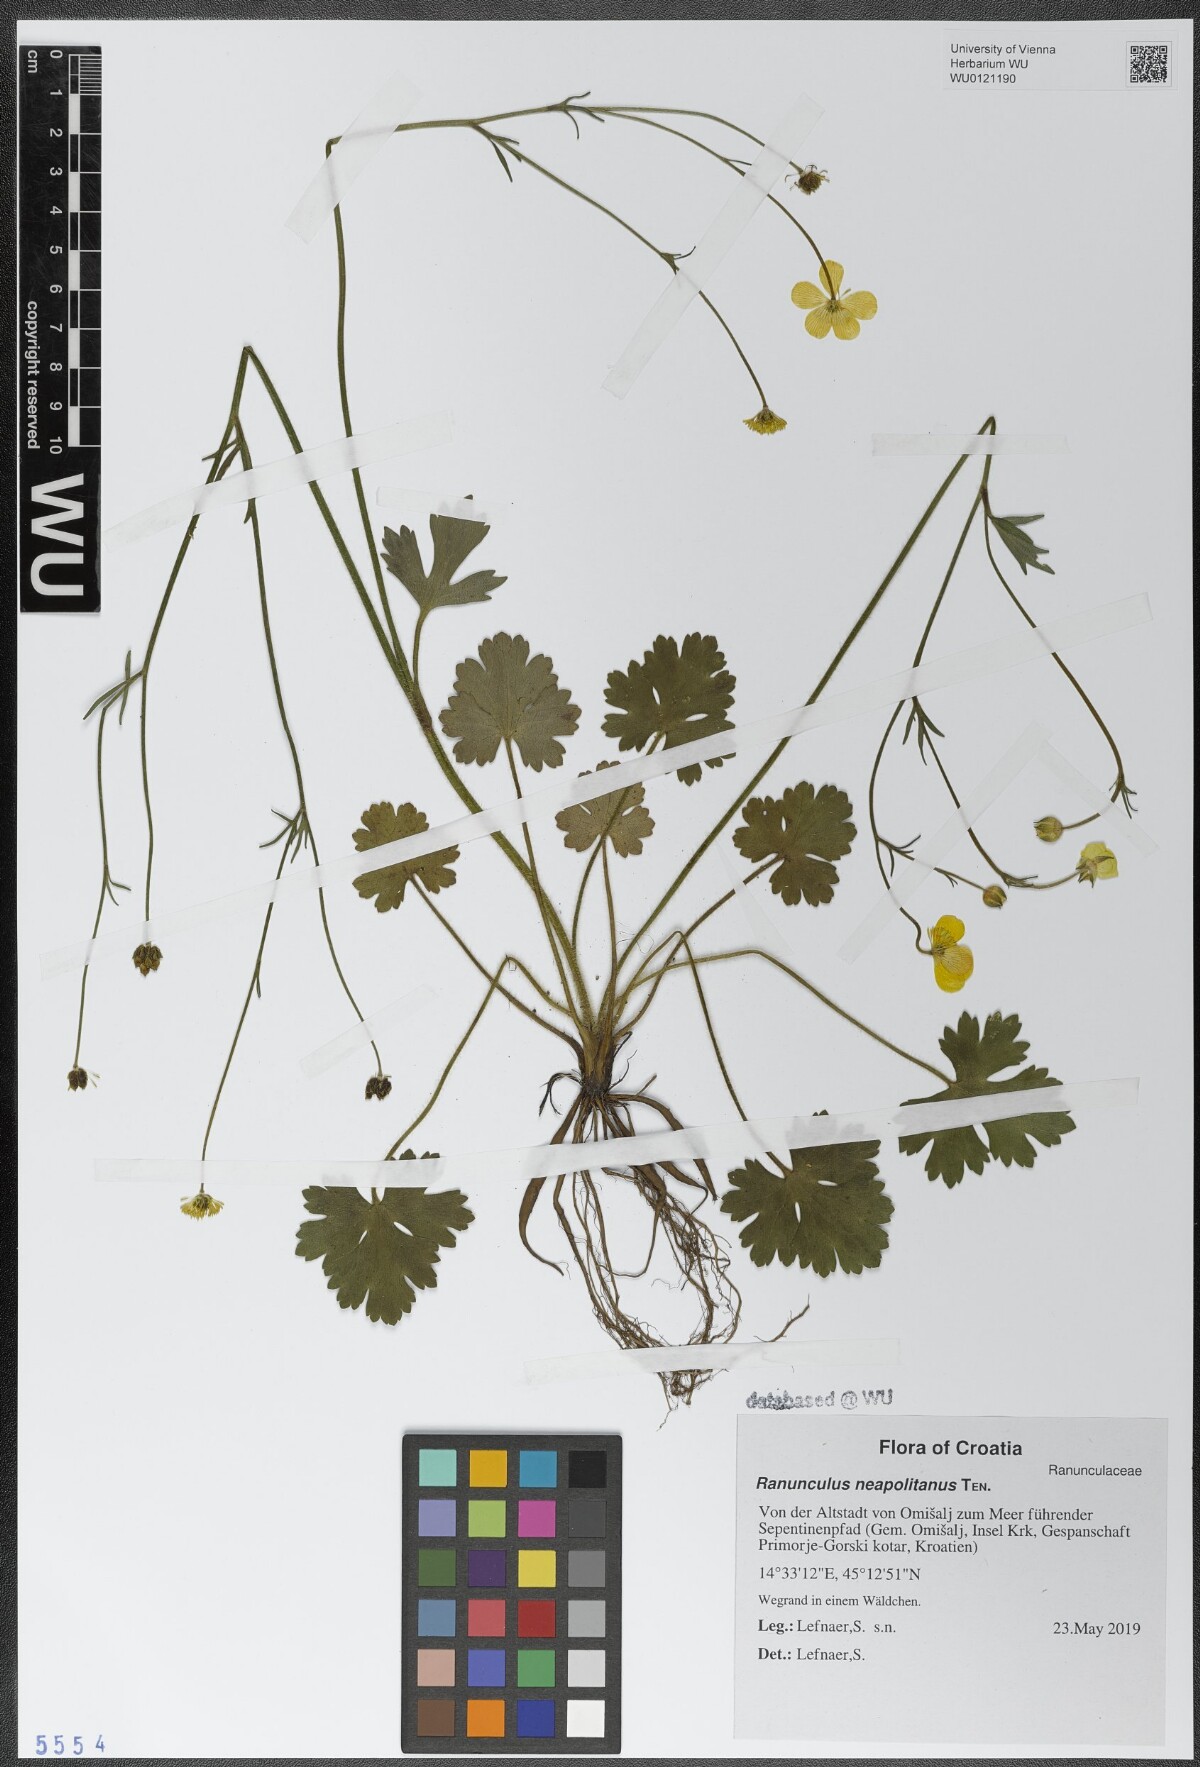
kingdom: Plantae
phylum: Tracheophyta
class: Magnoliopsida
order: Ranunculales
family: Ranunculaceae
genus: Ranunculus
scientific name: Ranunculus neapolitanus
